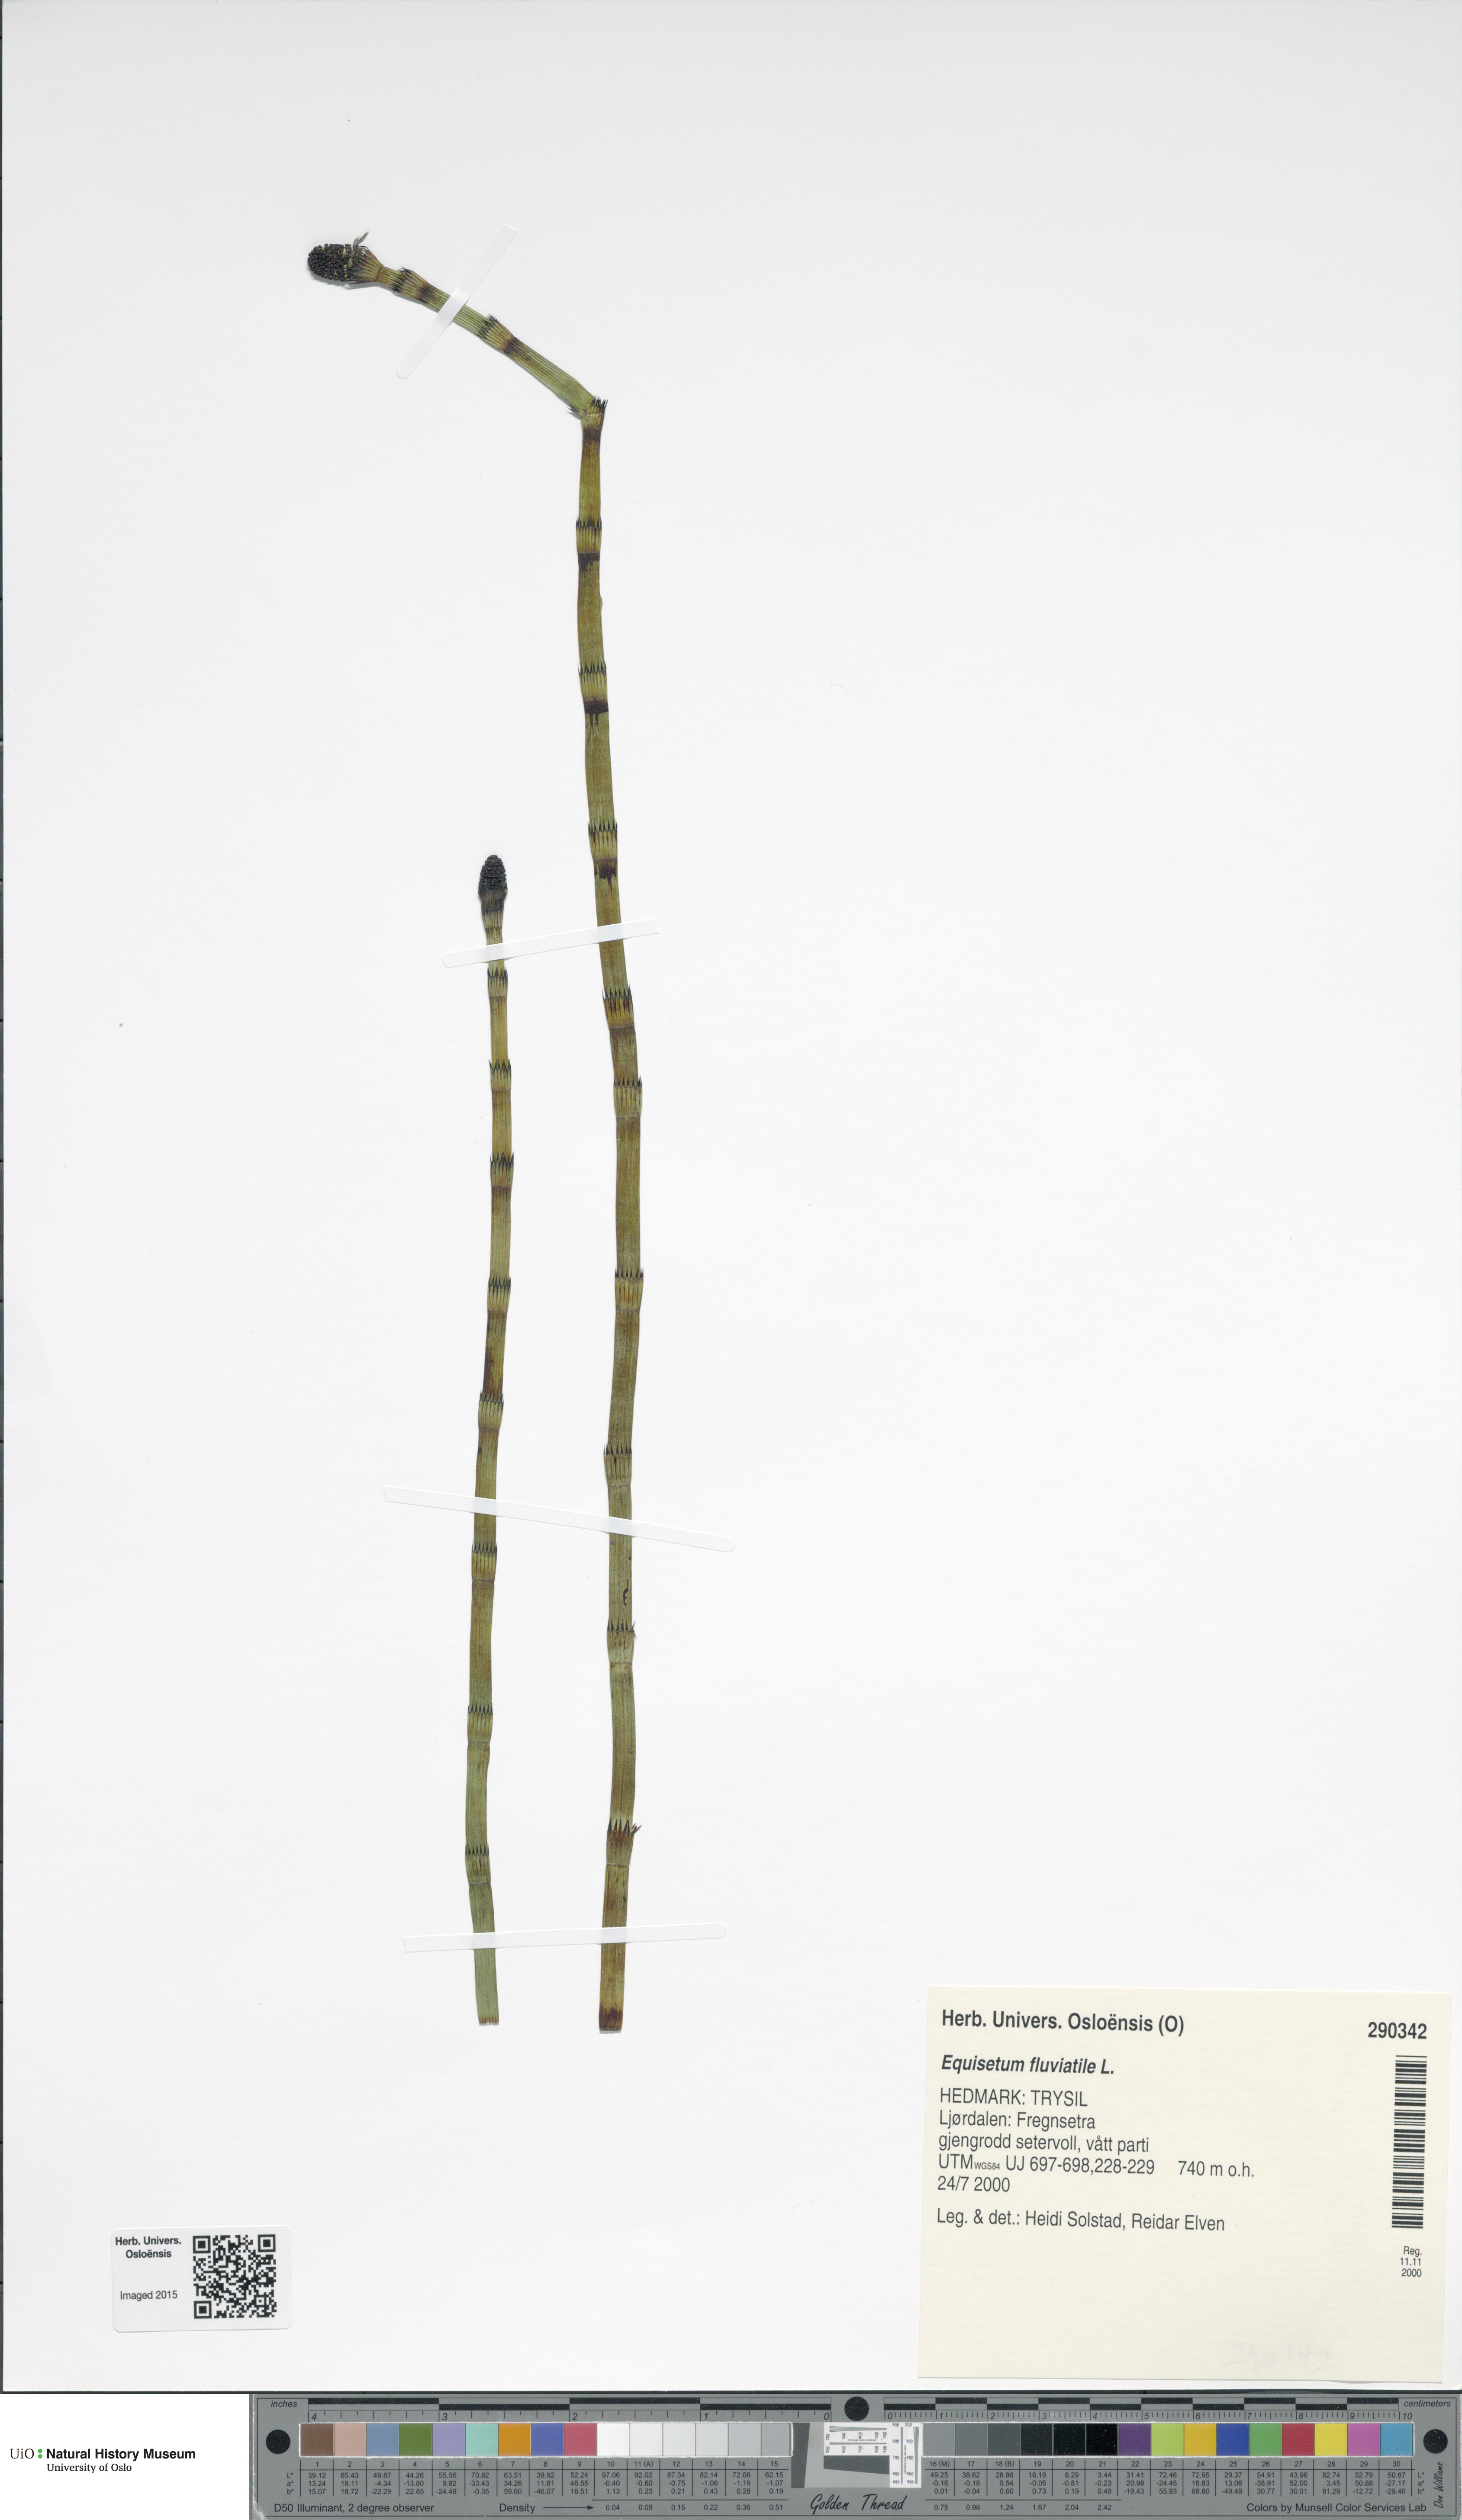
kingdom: Plantae
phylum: Tracheophyta
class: Polypodiopsida
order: Equisetales
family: Equisetaceae
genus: Equisetum
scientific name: Equisetum fluviatile
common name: Water horsetail
